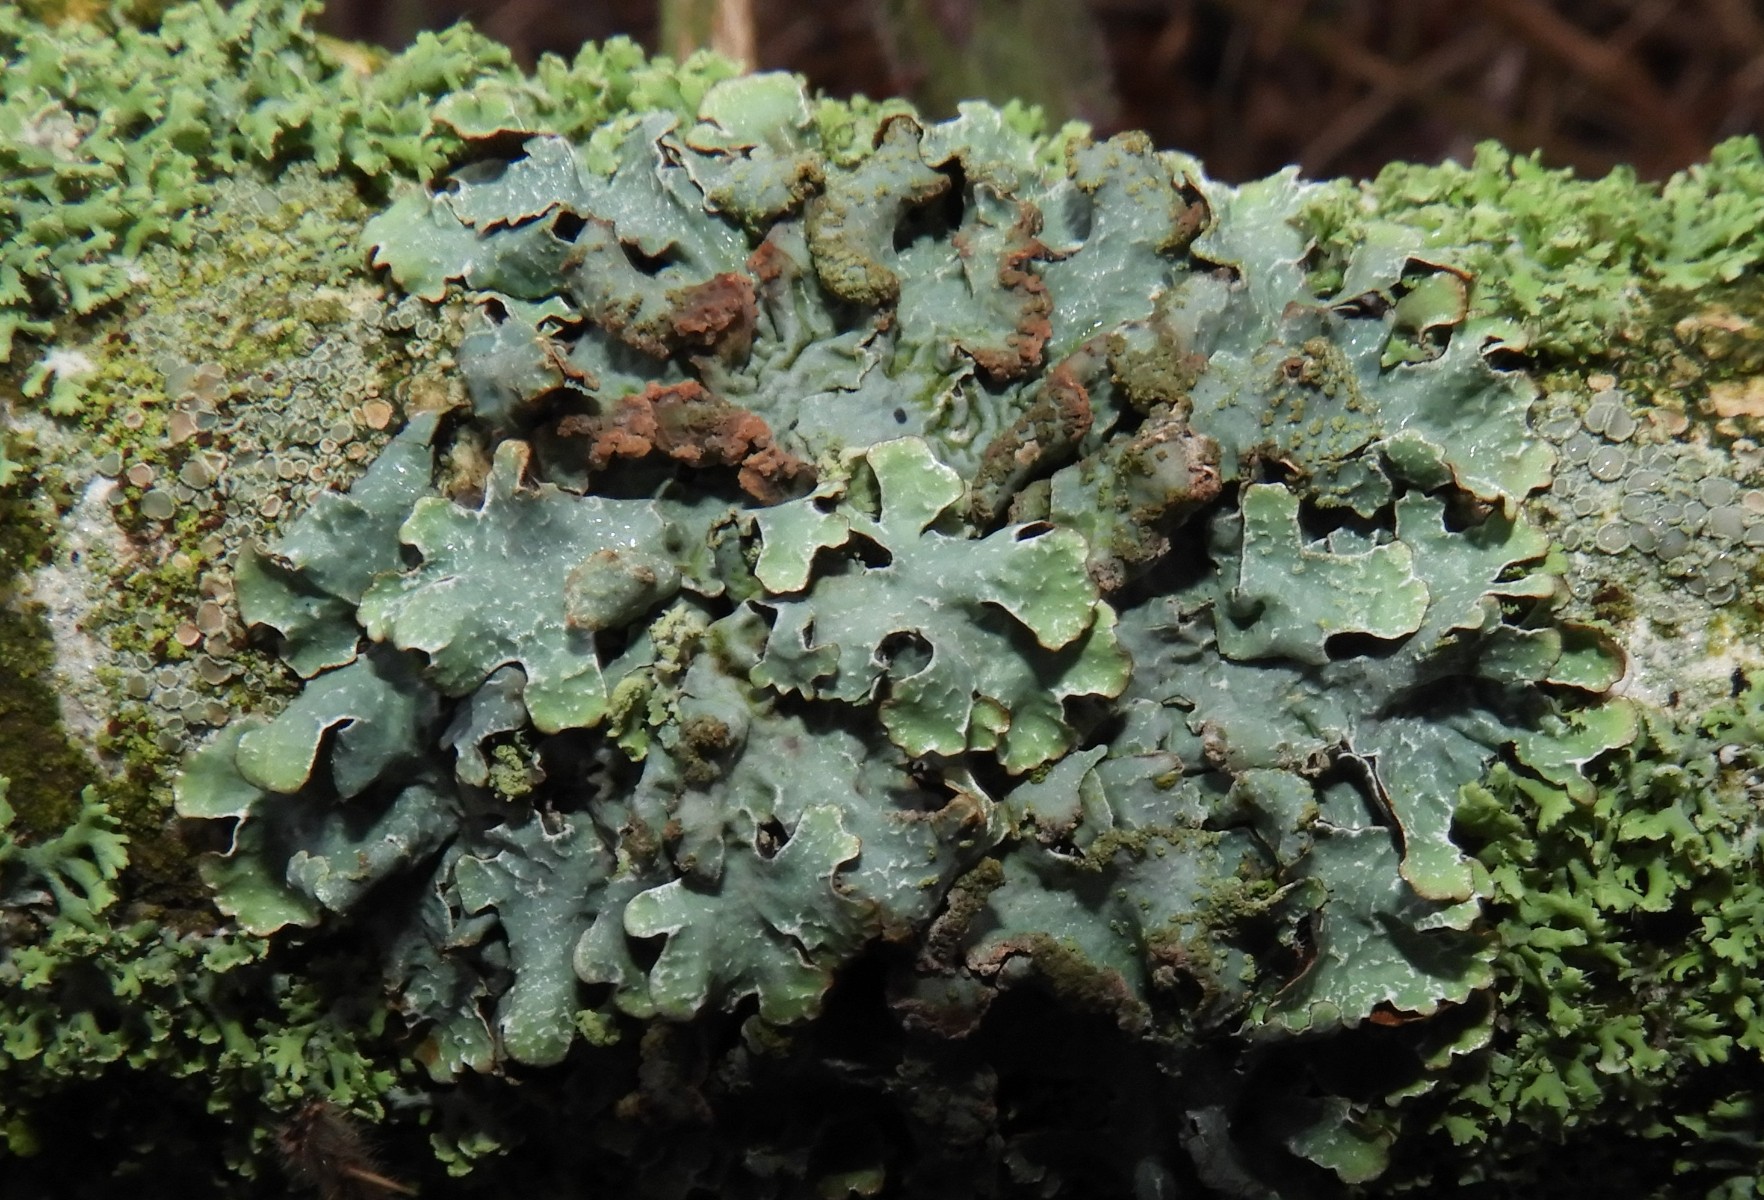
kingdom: Fungi
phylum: Ascomycota
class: Lecanoromycetes
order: Lecanorales
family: Parmeliaceae
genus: Parmelia
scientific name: Parmelia sulcata
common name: rynket skållav
